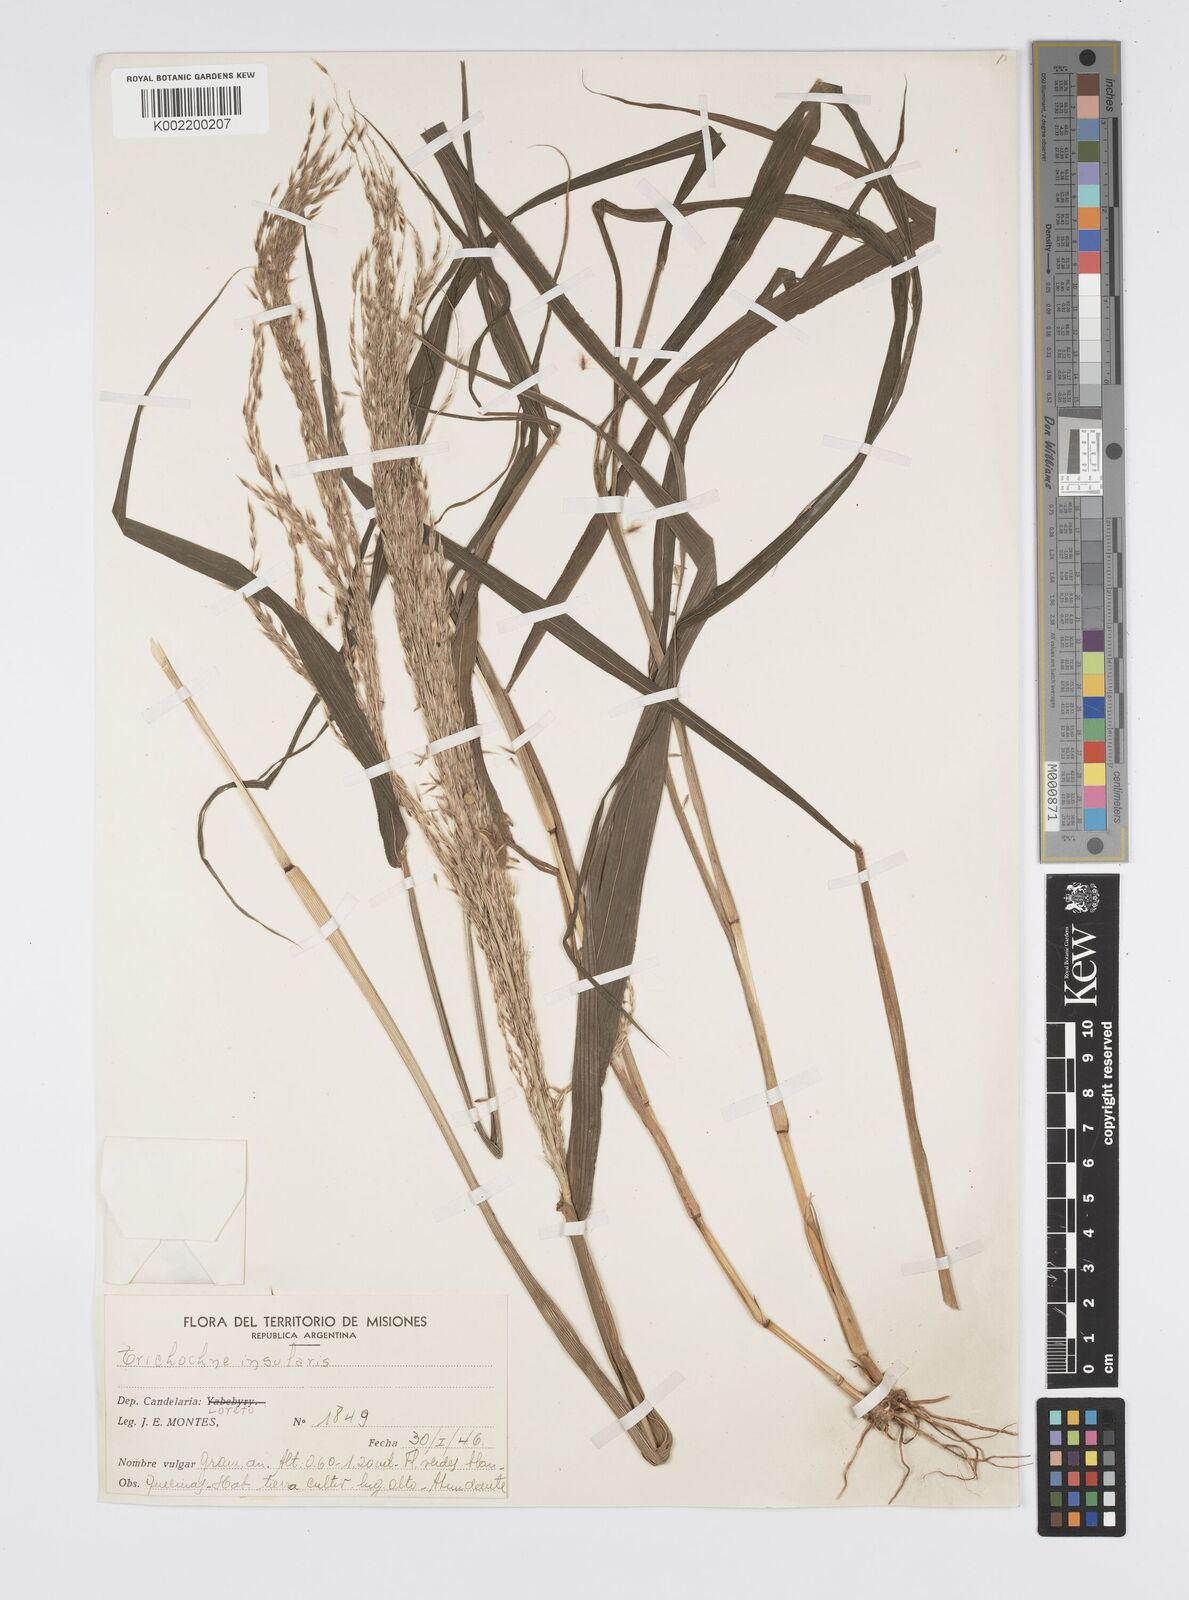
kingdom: Plantae
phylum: Tracheophyta
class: Liliopsida
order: Poales
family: Poaceae
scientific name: Poaceae
